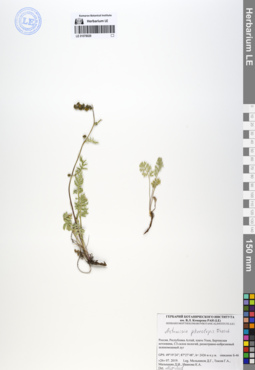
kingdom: Plantae
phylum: Tracheophyta
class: Magnoliopsida
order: Asterales
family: Asteraceae
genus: Artemisia
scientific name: Artemisia phaeolepis
